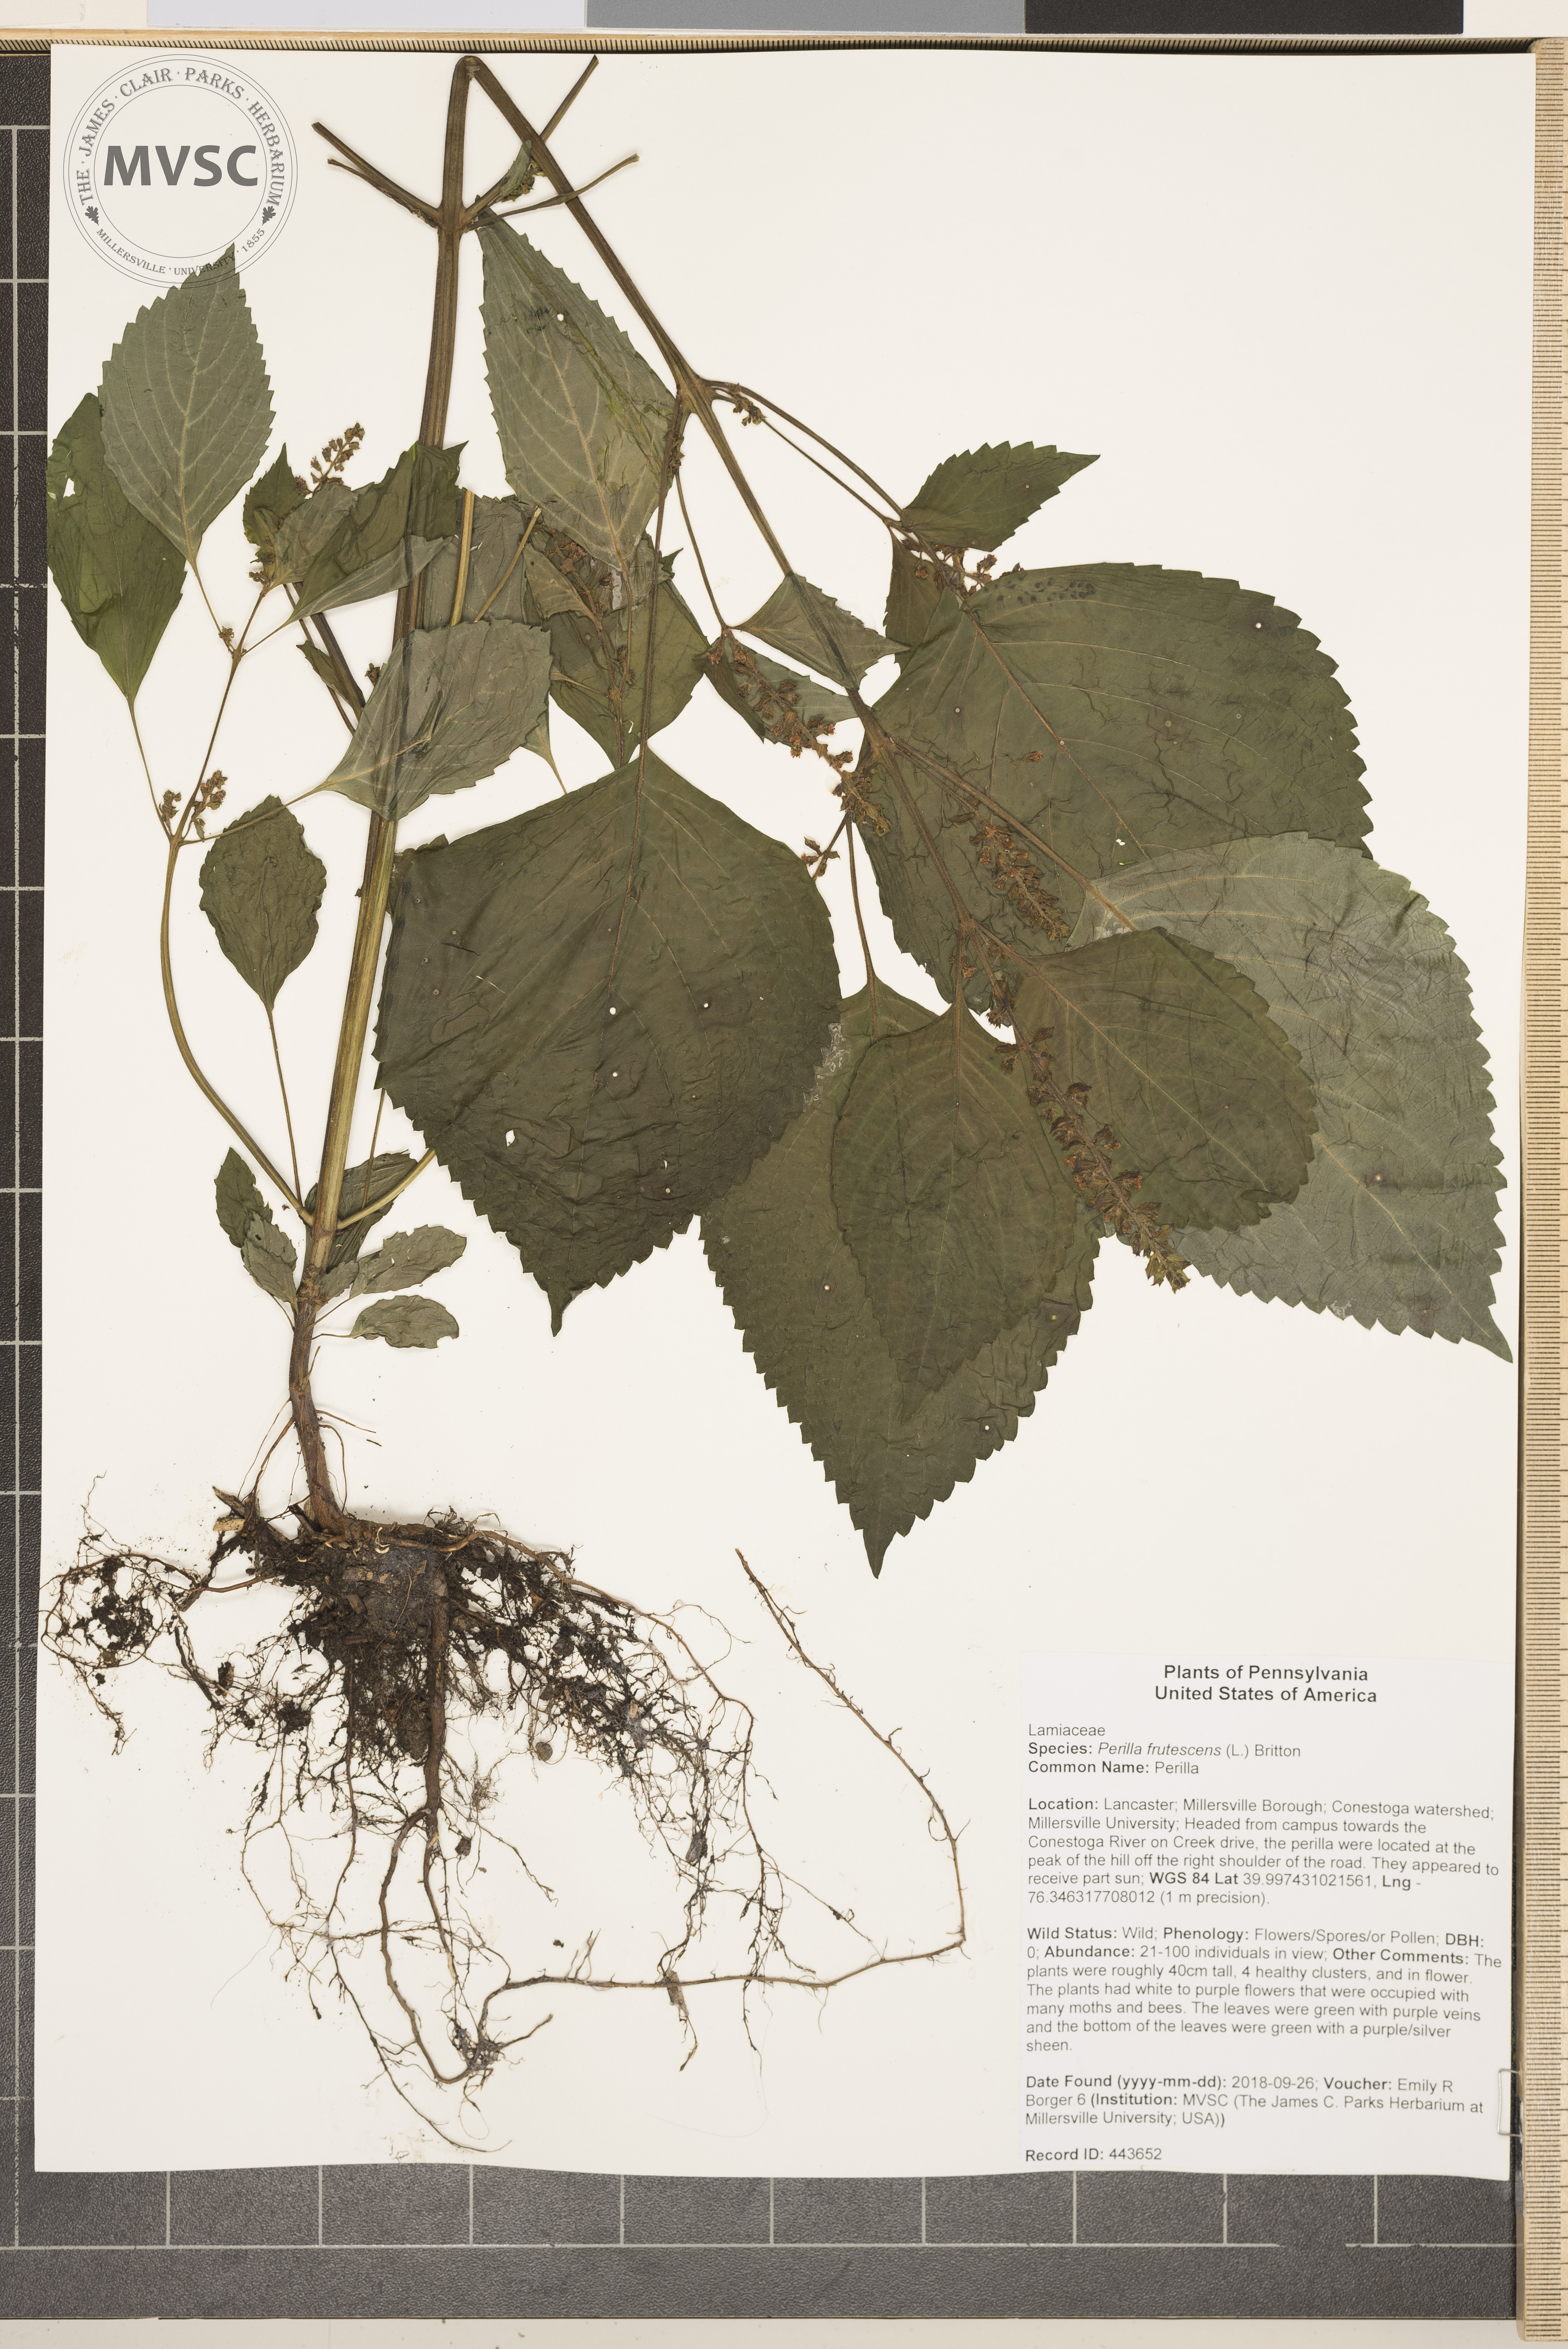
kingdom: Plantae
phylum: Tracheophyta
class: Magnoliopsida
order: Lamiales
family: Lamiaceae
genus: Perilla
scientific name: Perilla frutescens
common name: Perilla
